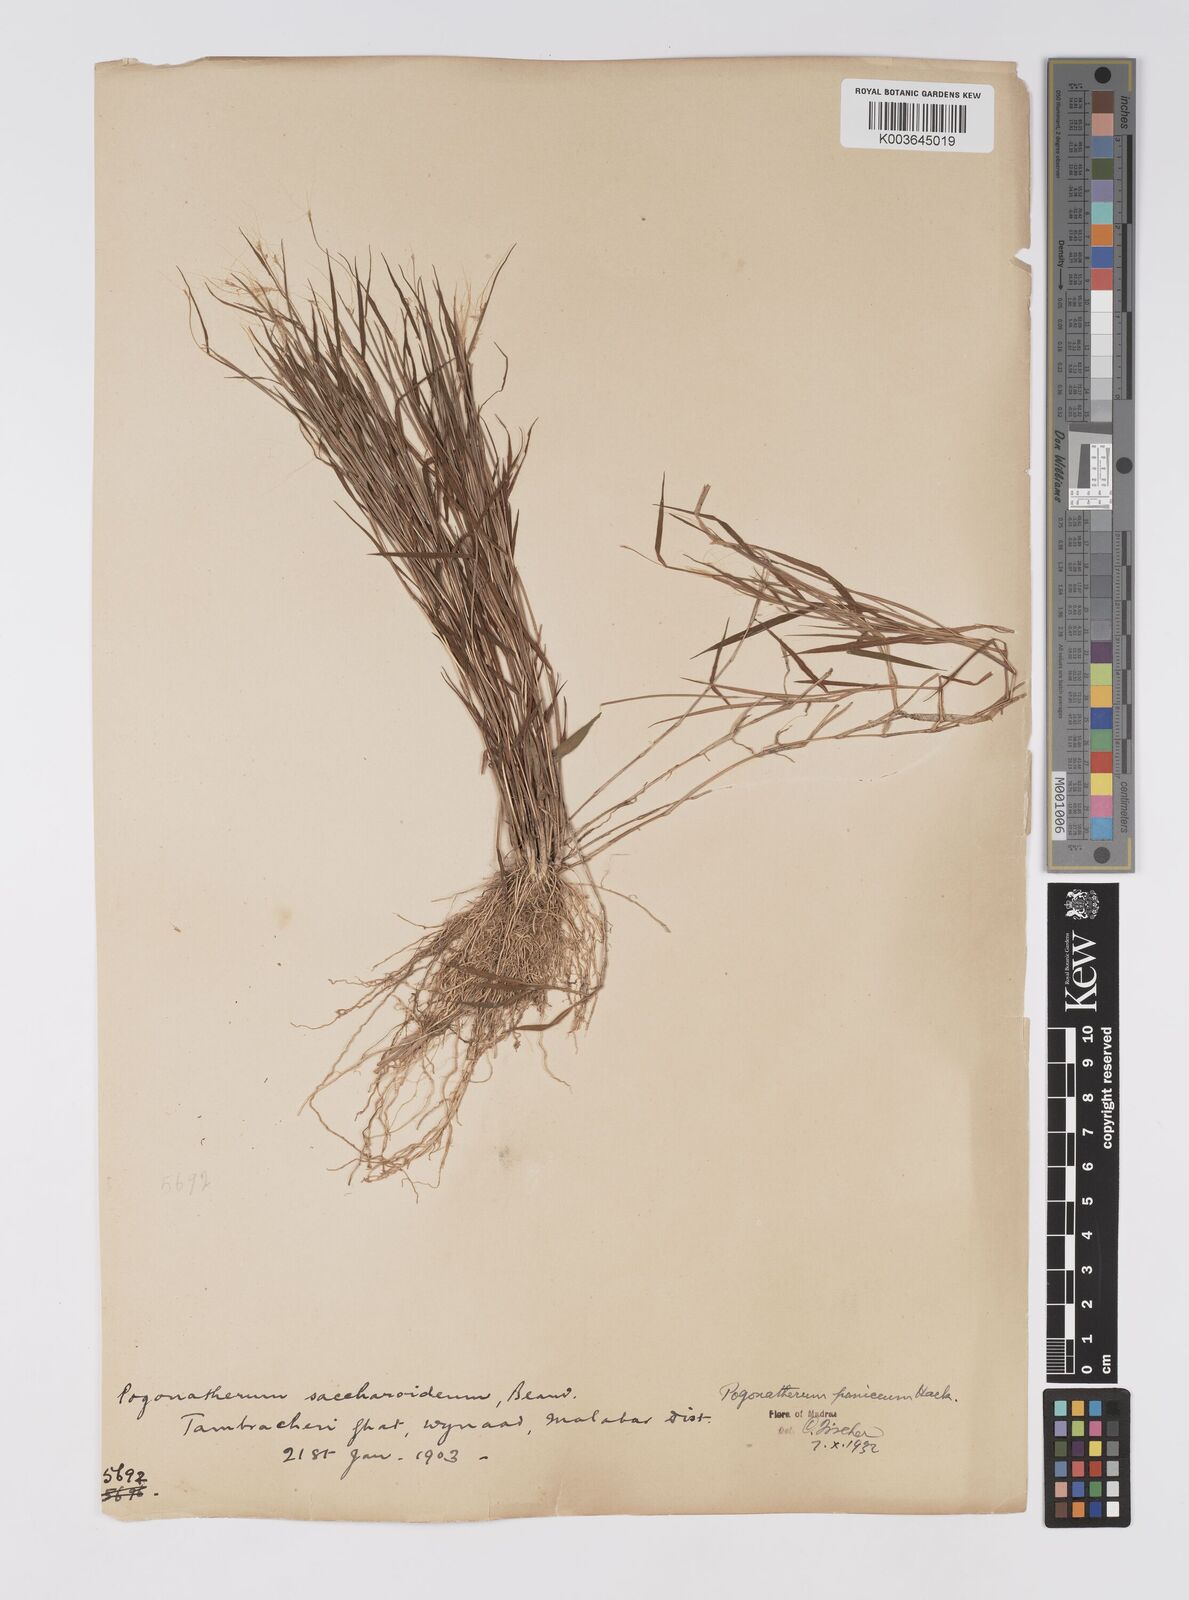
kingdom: Plantae
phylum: Tracheophyta
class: Liliopsida
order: Poales
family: Poaceae
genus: Pogonatherum
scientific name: Pogonatherum crinitum
